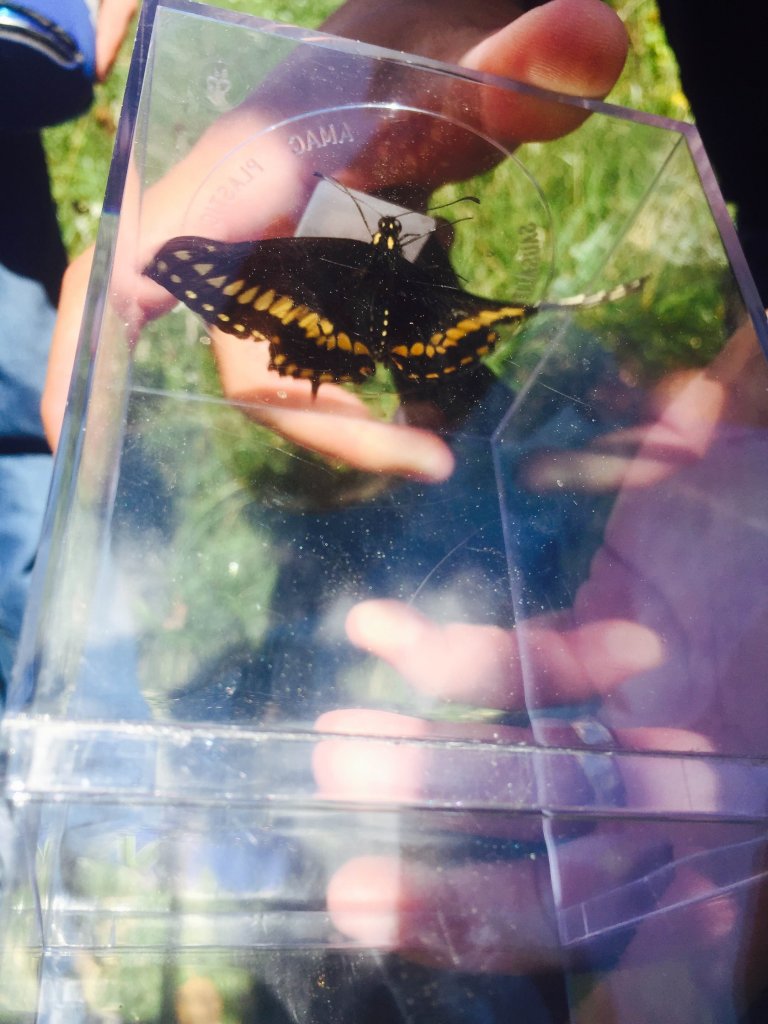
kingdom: Animalia
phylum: Arthropoda
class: Insecta
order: Lepidoptera
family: Papilionidae
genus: Papilio
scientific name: Papilio polyxenes
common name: Black Swallowtail
